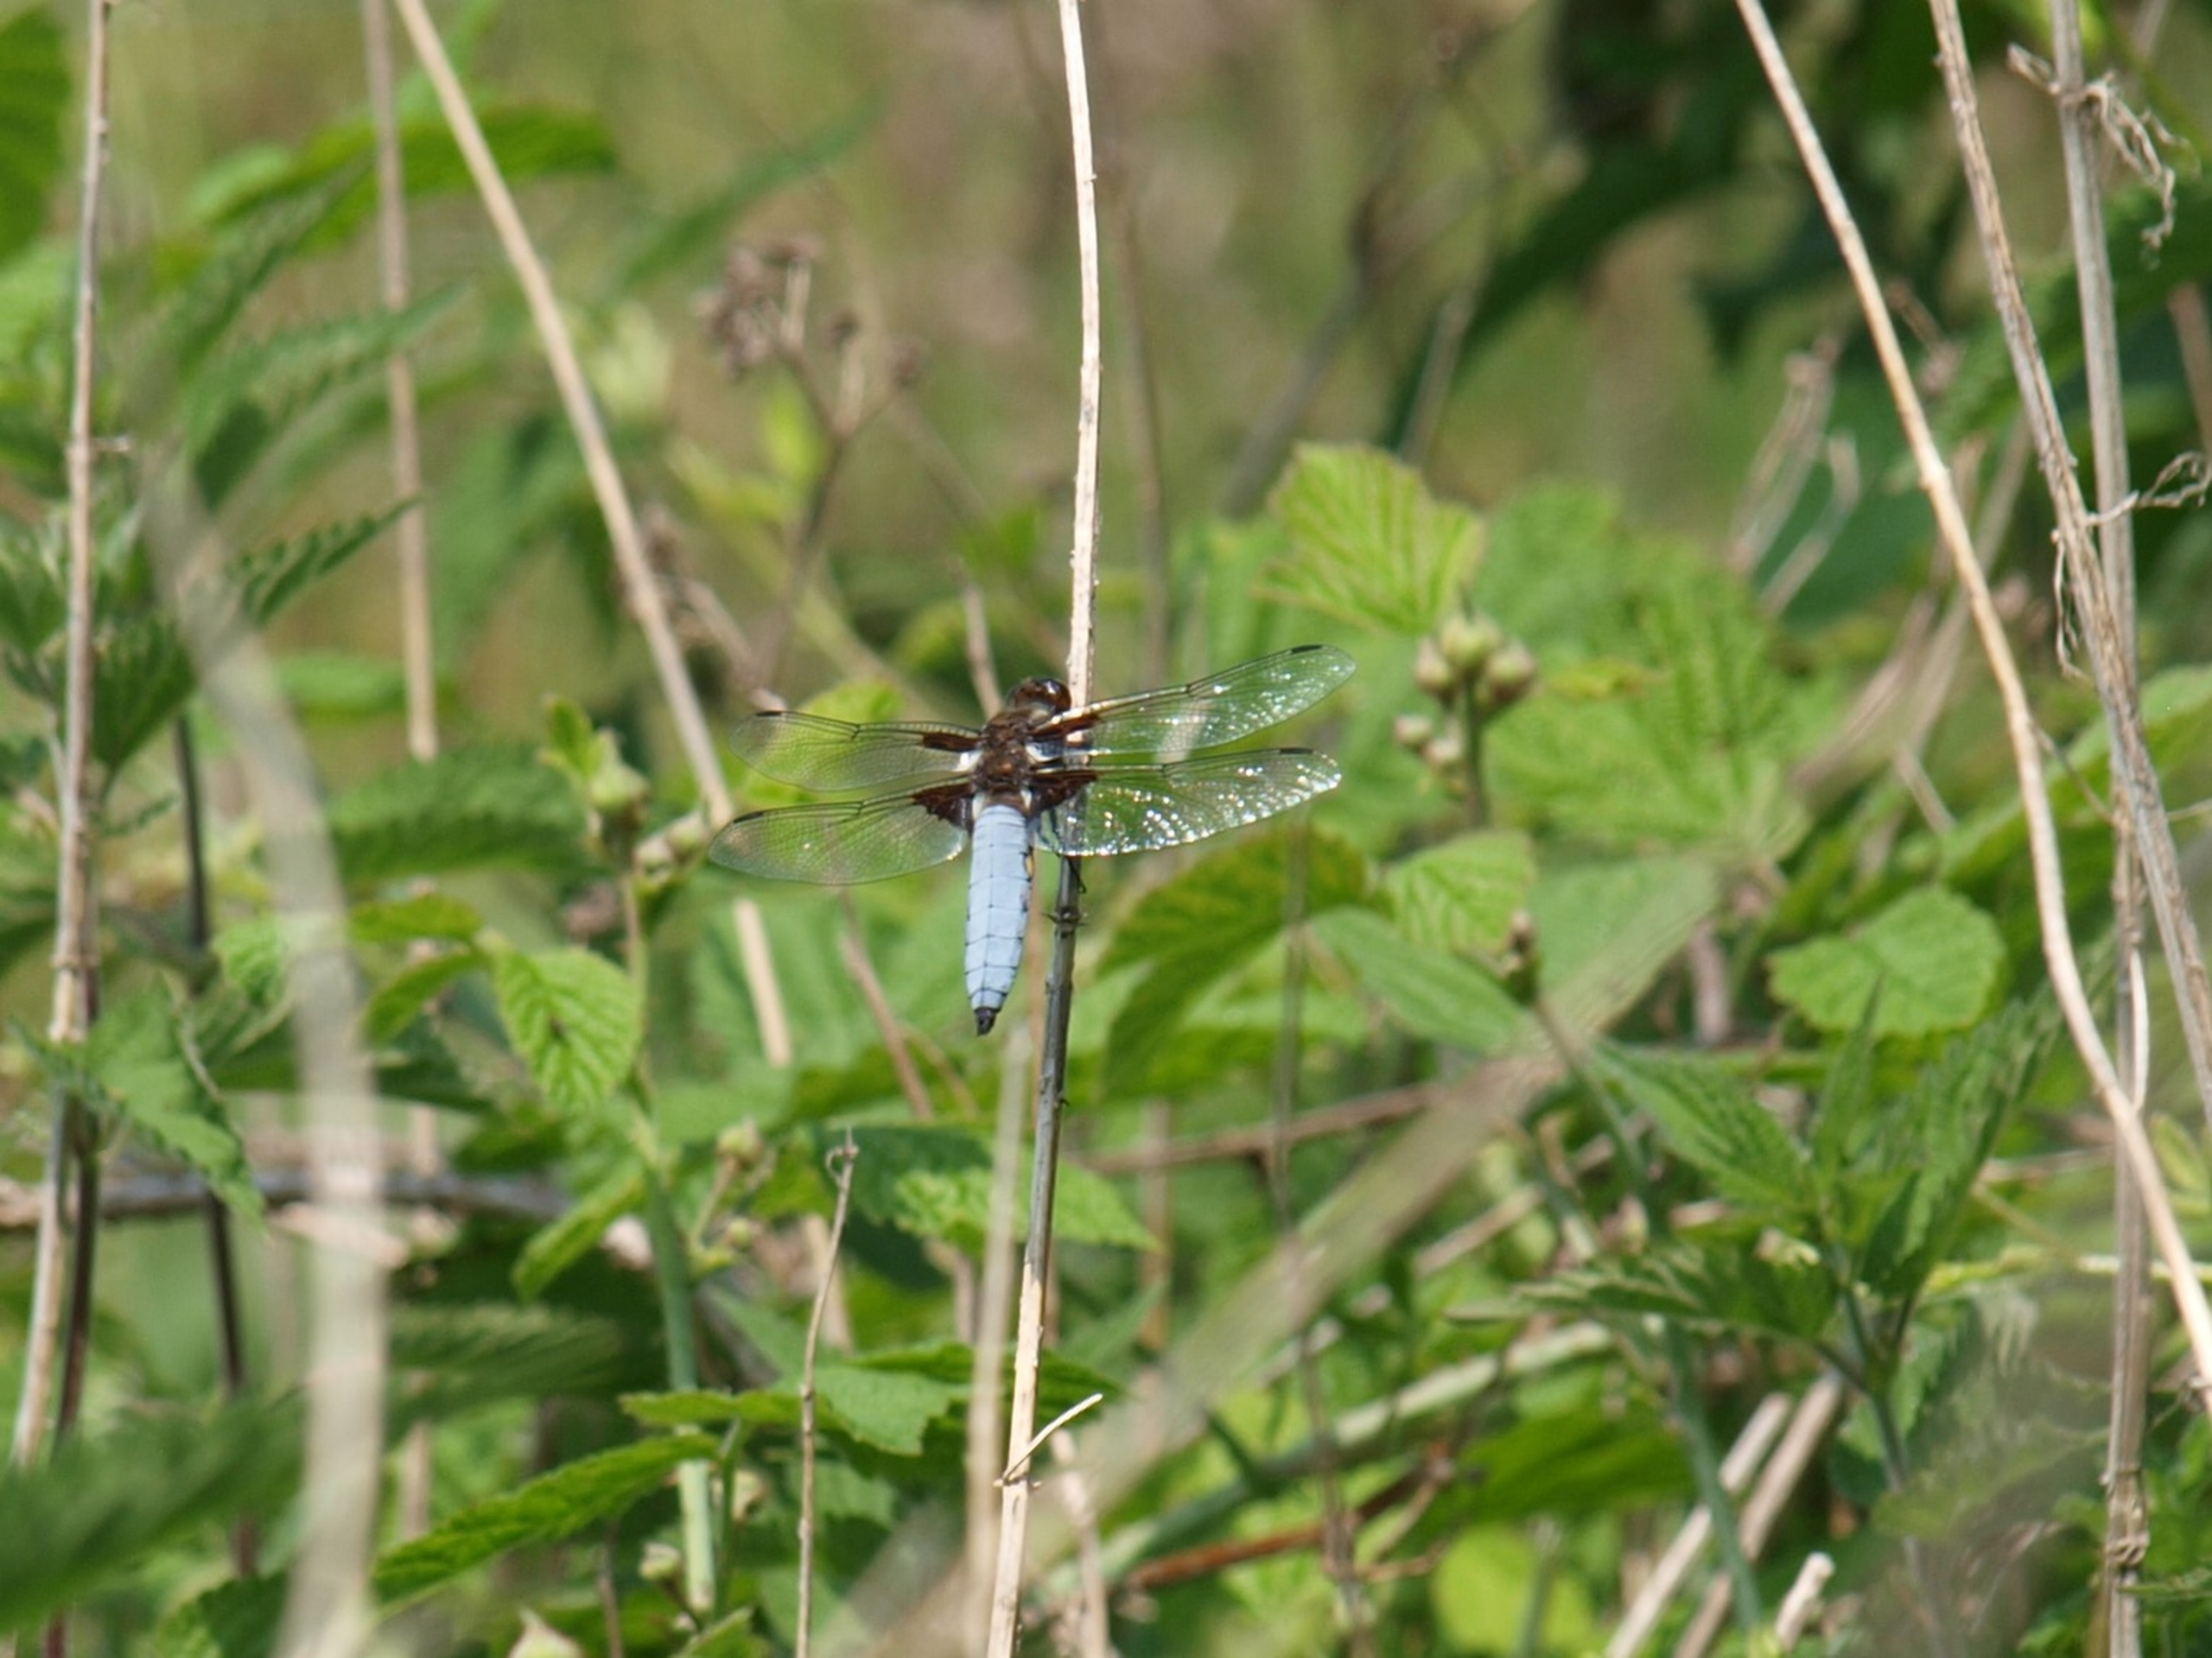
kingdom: Animalia
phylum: Arthropoda
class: Insecta
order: Odonata
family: Libellulidae
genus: Libellula
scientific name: Libellula depressa
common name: Blå libel
